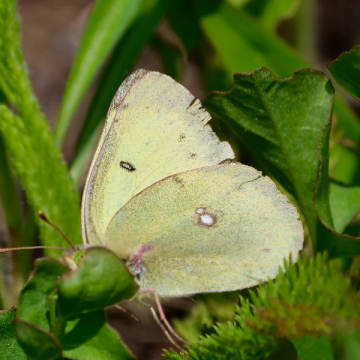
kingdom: Animalia
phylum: Arthropoda
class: Insecta
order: Lepidoptera
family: Pieridae
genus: Colias
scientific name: Colias philodice
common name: Clouded Sulphur
